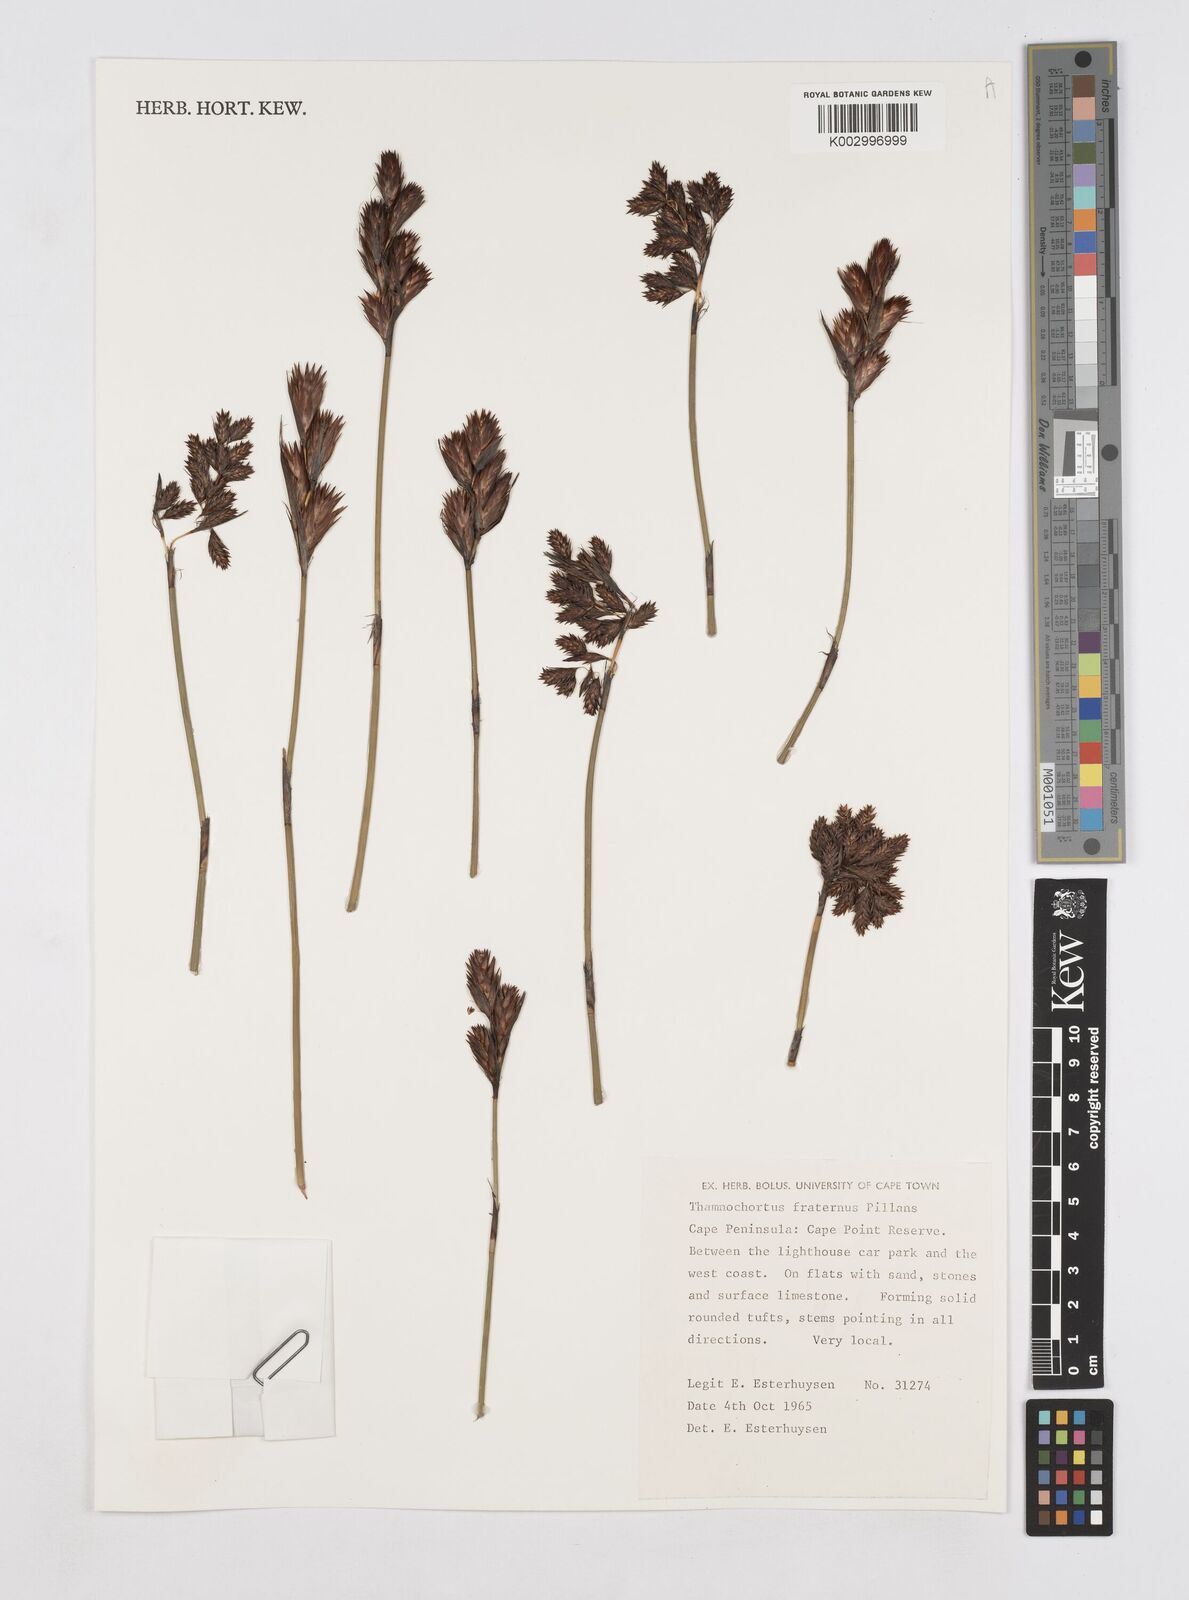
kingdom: Plantae
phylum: Tracheophyta
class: Liliopsida
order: Poales
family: Restionaceae
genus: Thamnochortus
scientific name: Thamnochortus fraternus
